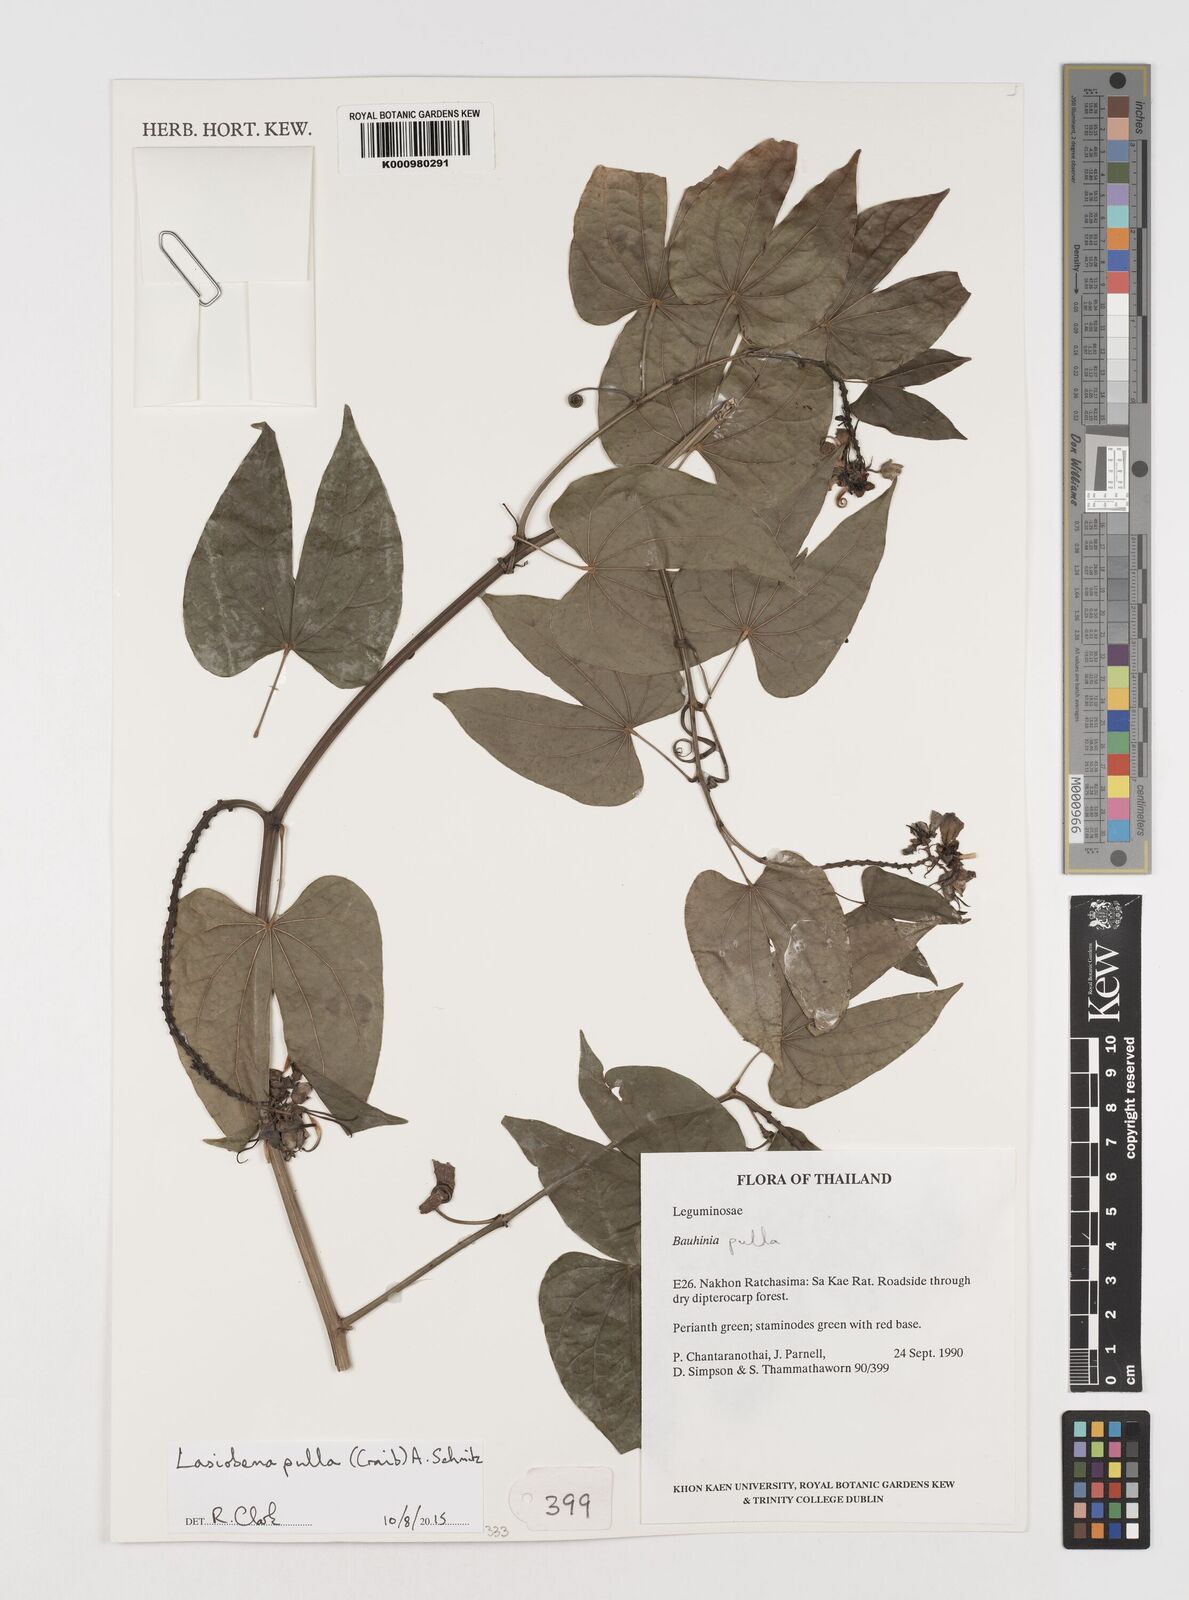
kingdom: Plantae
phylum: Tracheophyta
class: Magnoliopsida
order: Fabales
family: Fabaceae
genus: Phanera
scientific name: Phanera pulla
